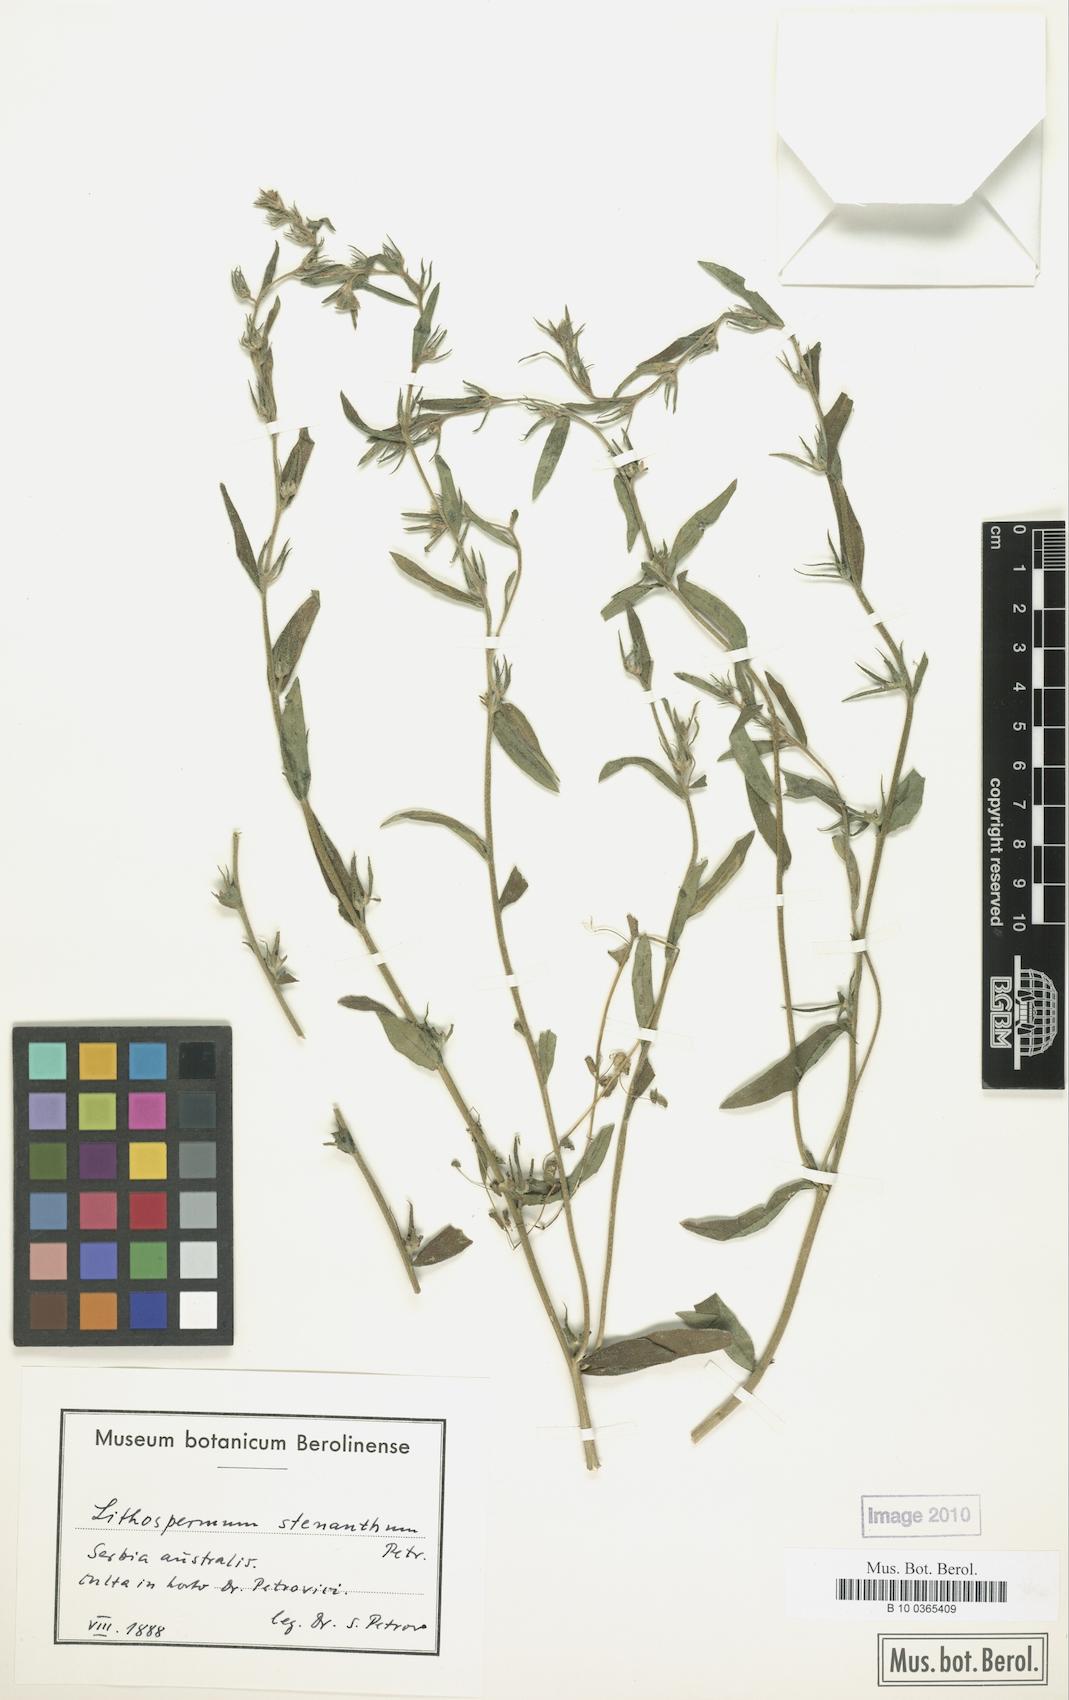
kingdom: Plantae
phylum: Tracheophyta
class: Magnoliopsida
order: Boraginales
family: Boraginaceae
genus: Lithospermum
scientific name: Lithospermum
